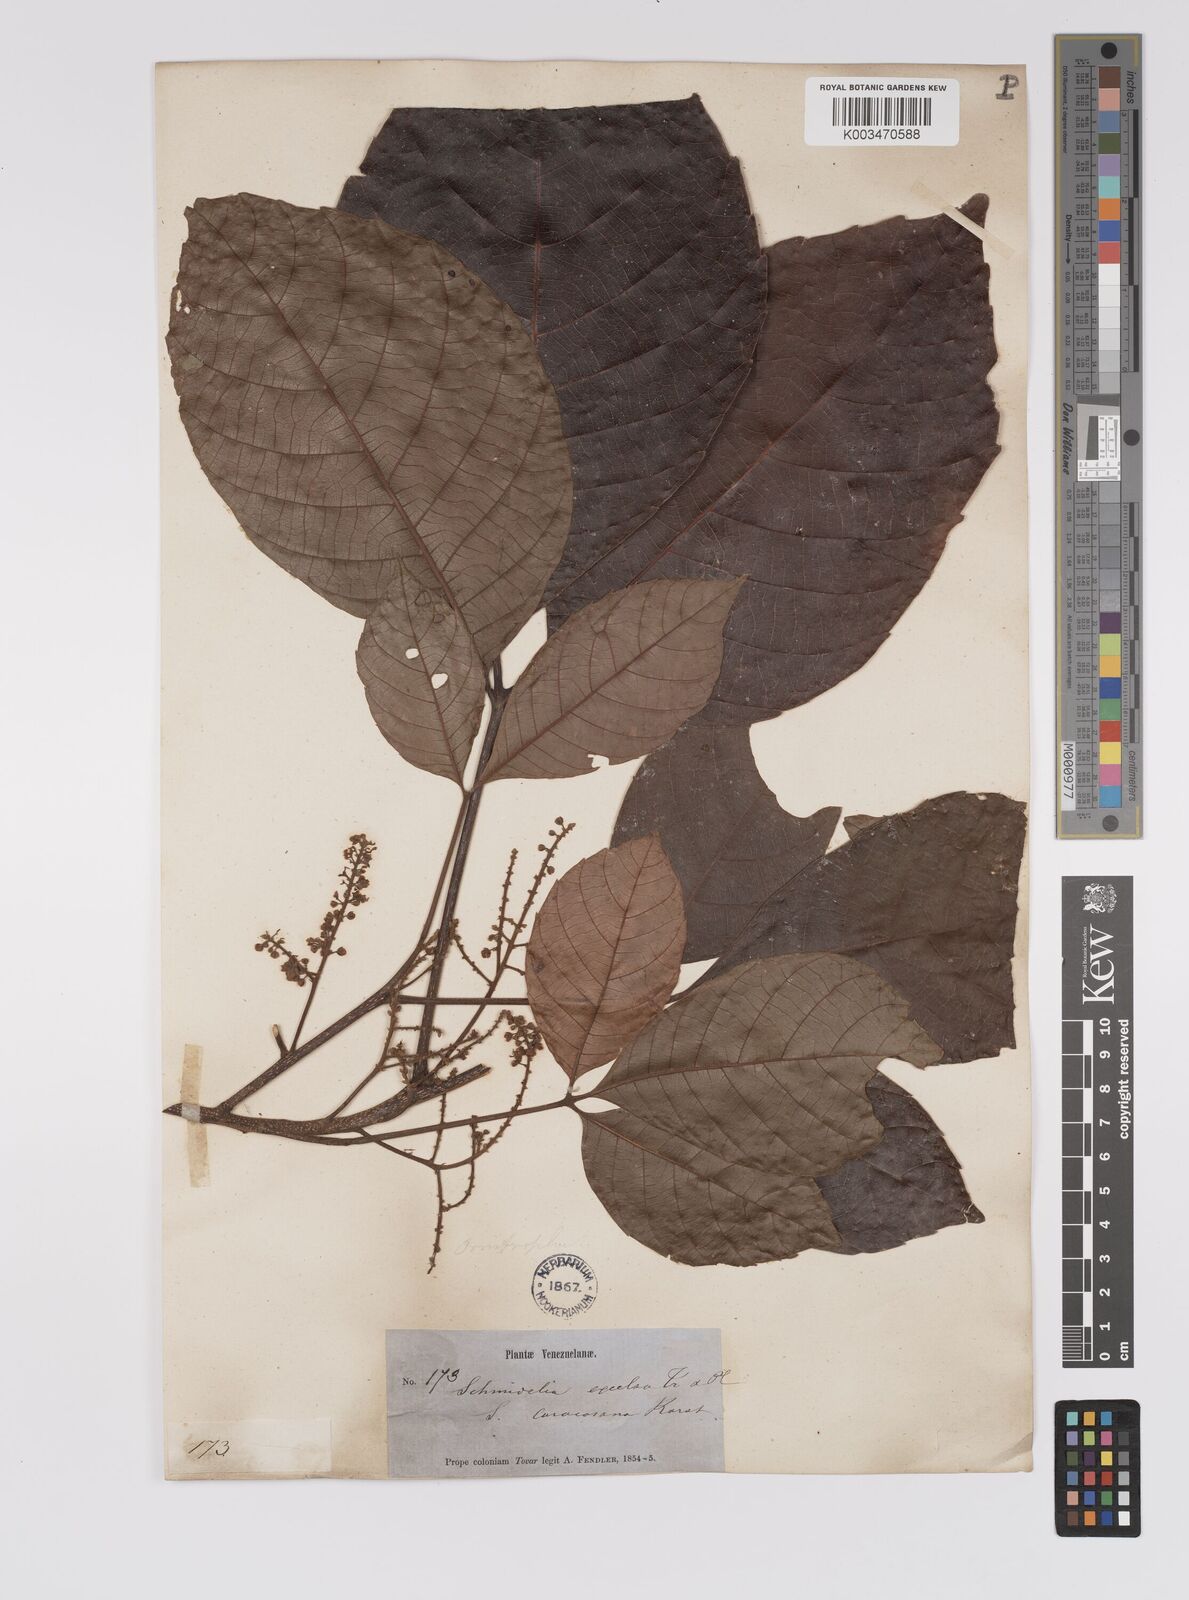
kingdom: Plantae
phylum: Tracheophyta
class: Magnoliopsida
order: Sapindales
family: Sapindaceae
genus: Allophylus
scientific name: Allophylus excelsus
